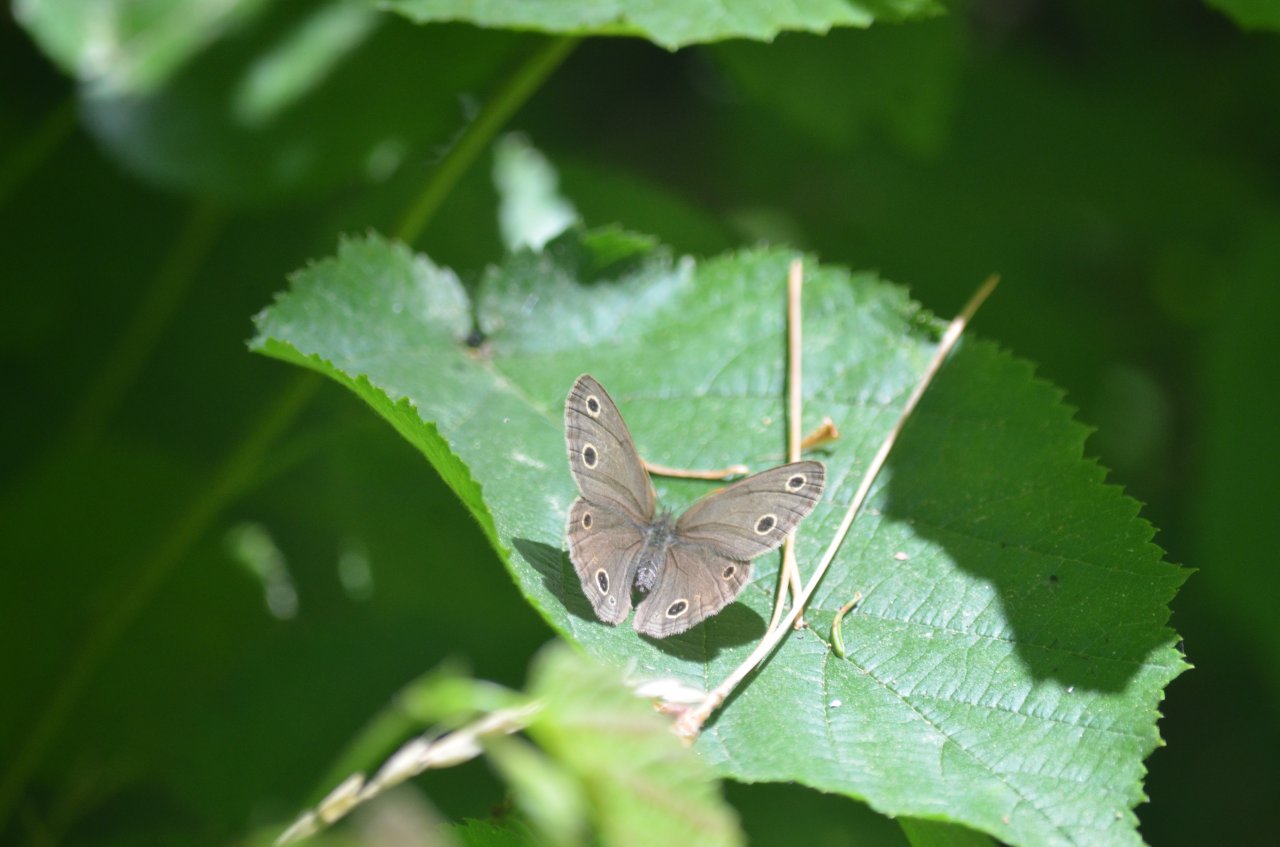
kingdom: Animalia
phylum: Arthropoda
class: Insecta
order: Lepidoptera
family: Nymphalidae
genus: Euptychia
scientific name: Euptychia cymela
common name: Little Wood Satyr
